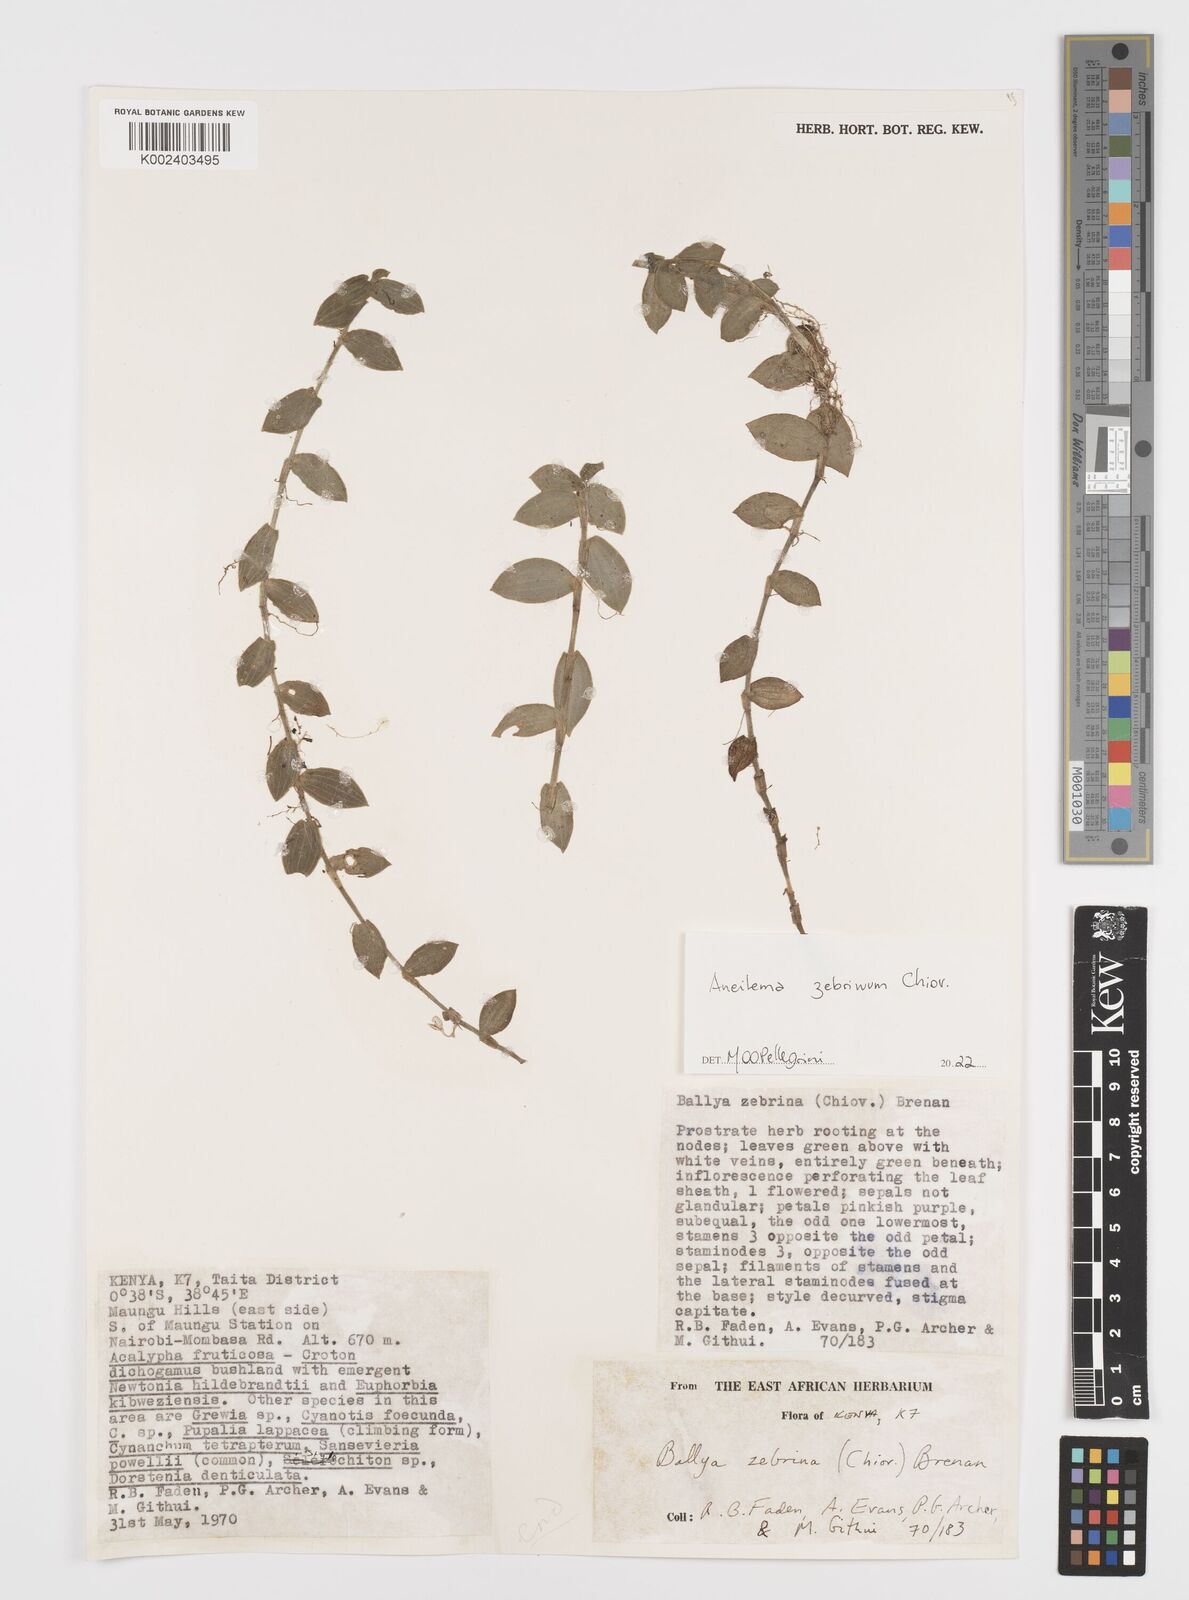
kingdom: Plantae
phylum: Tracheophyta
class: Liliopsida
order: Commelinales
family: Commelinaceae
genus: Aneilema
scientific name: Aneilema zebrinum
